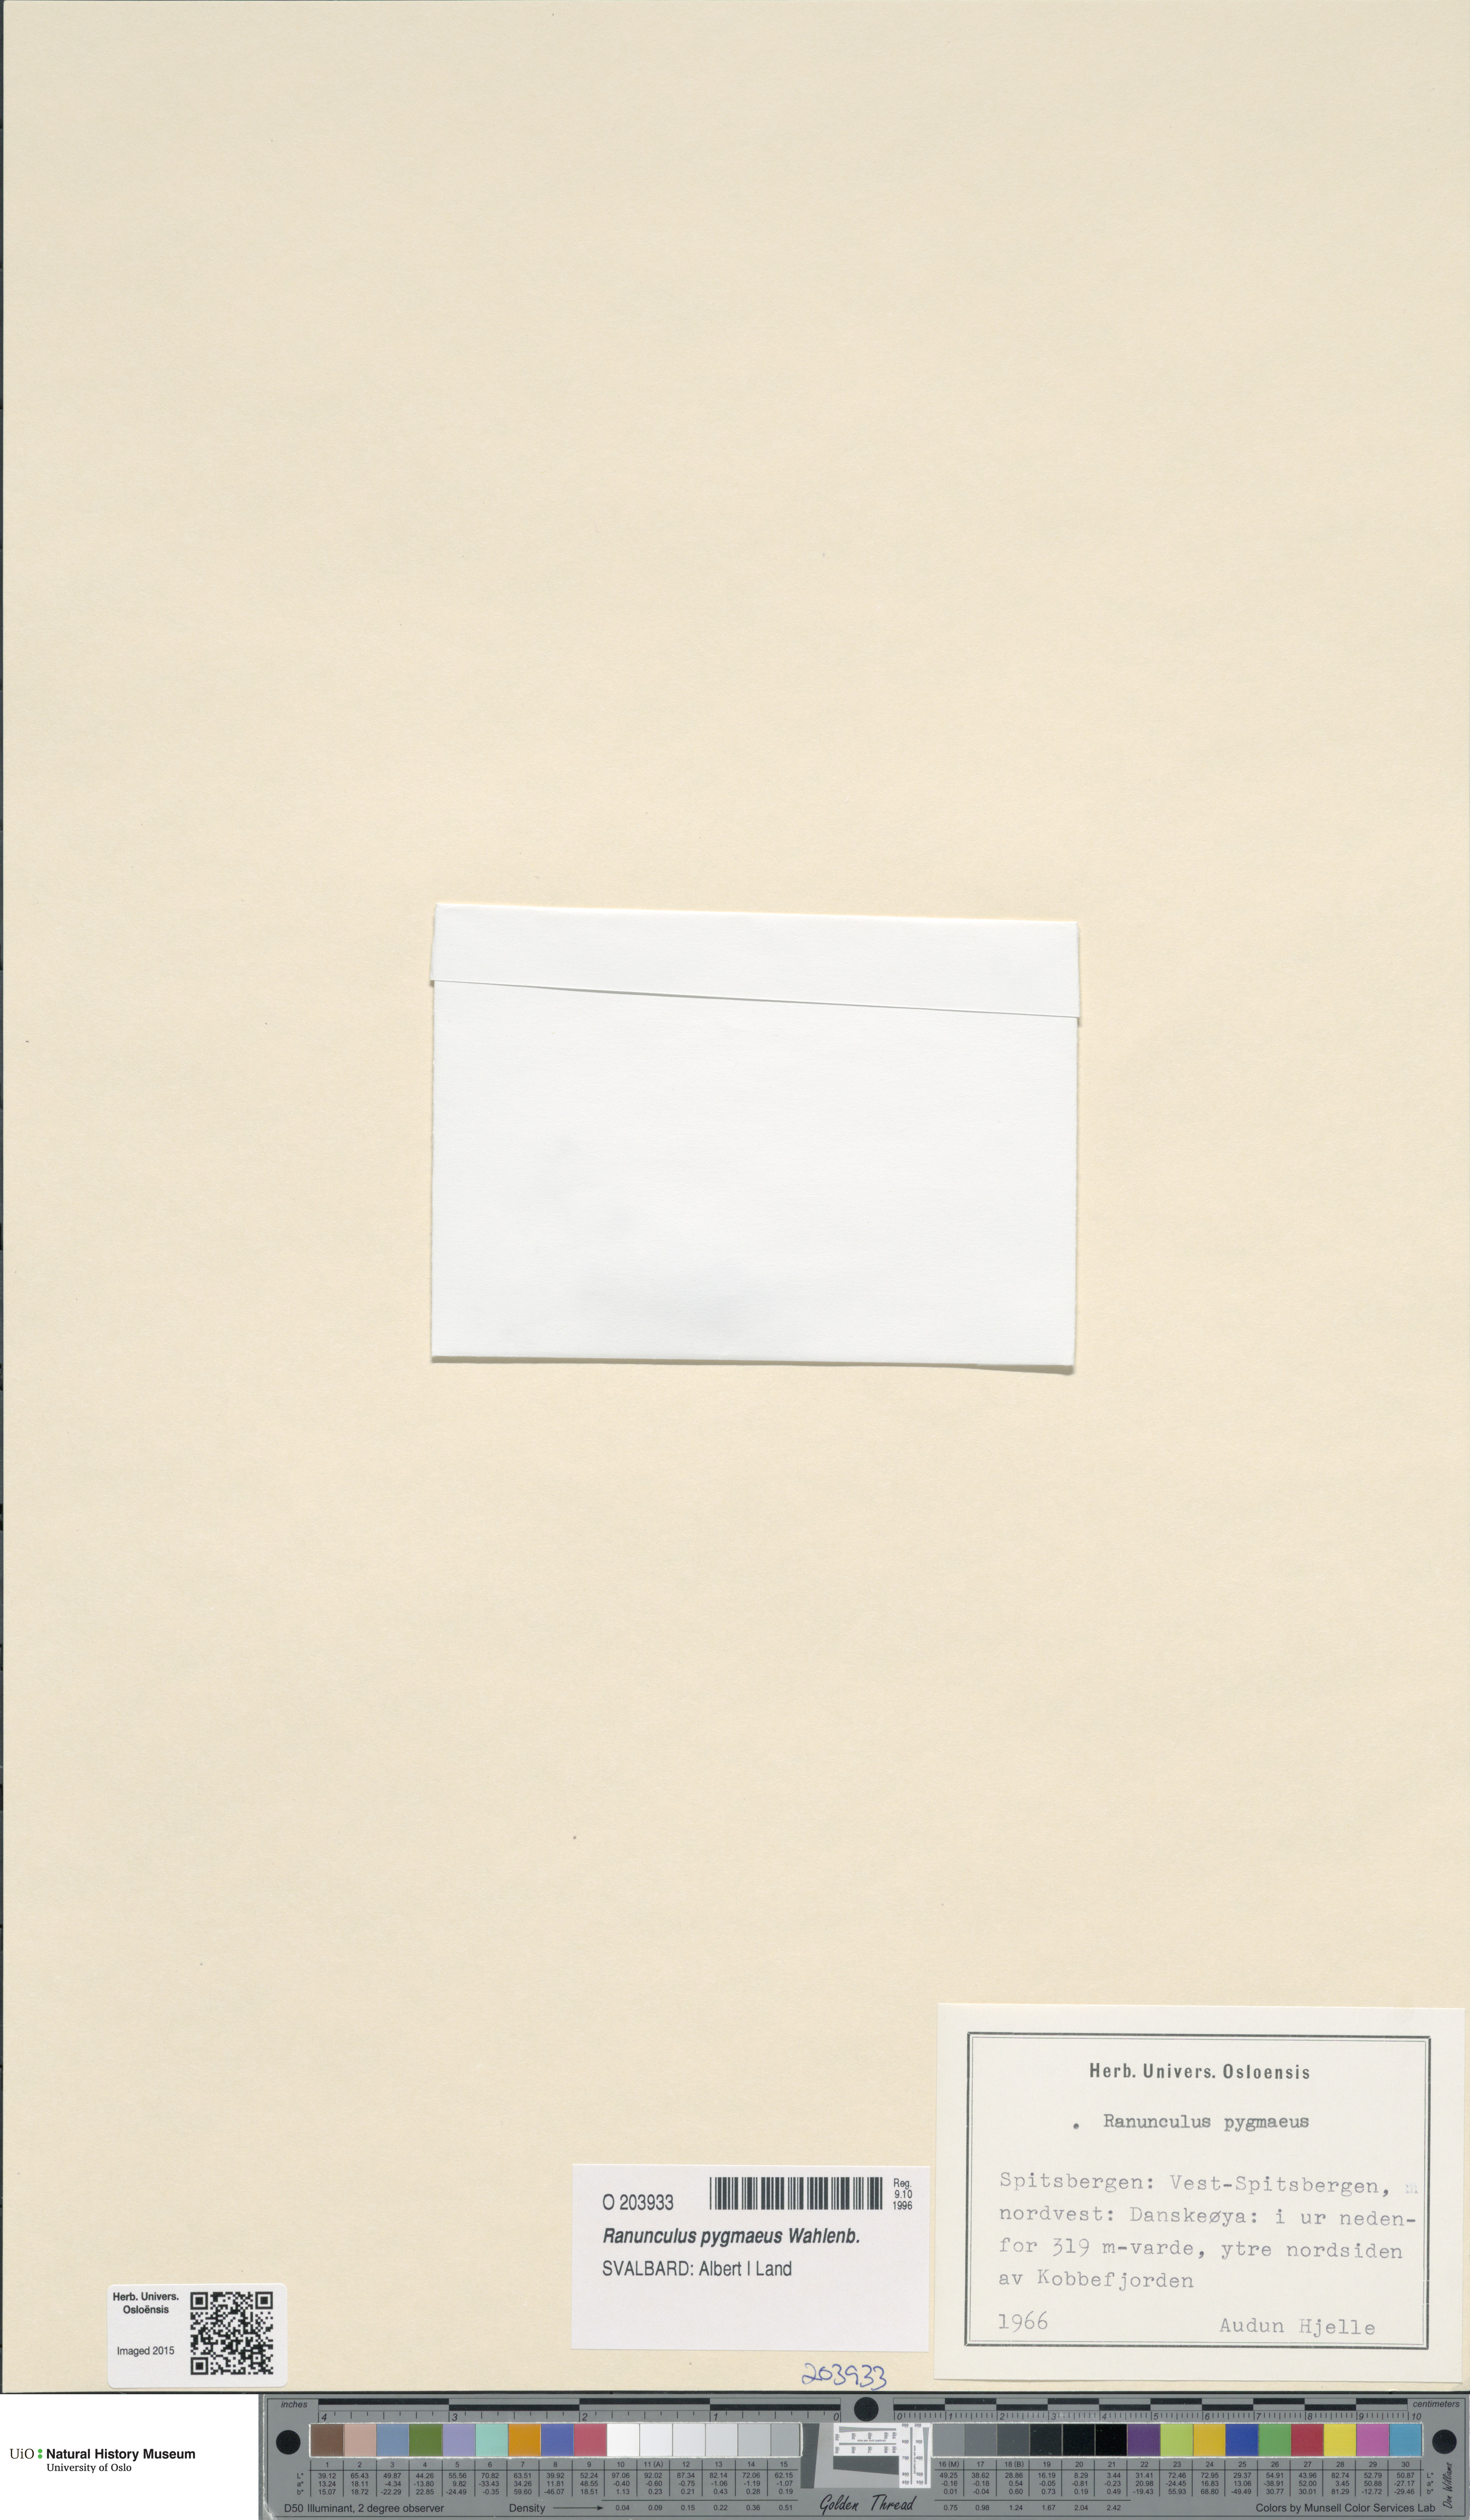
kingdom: Plantae
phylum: Tracheophyta
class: Magnoliopsida
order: Ranunculales
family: Ranunculaceae
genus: Ranunculus
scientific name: Ranunculus pygmaeus
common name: Dwarf buttercup
